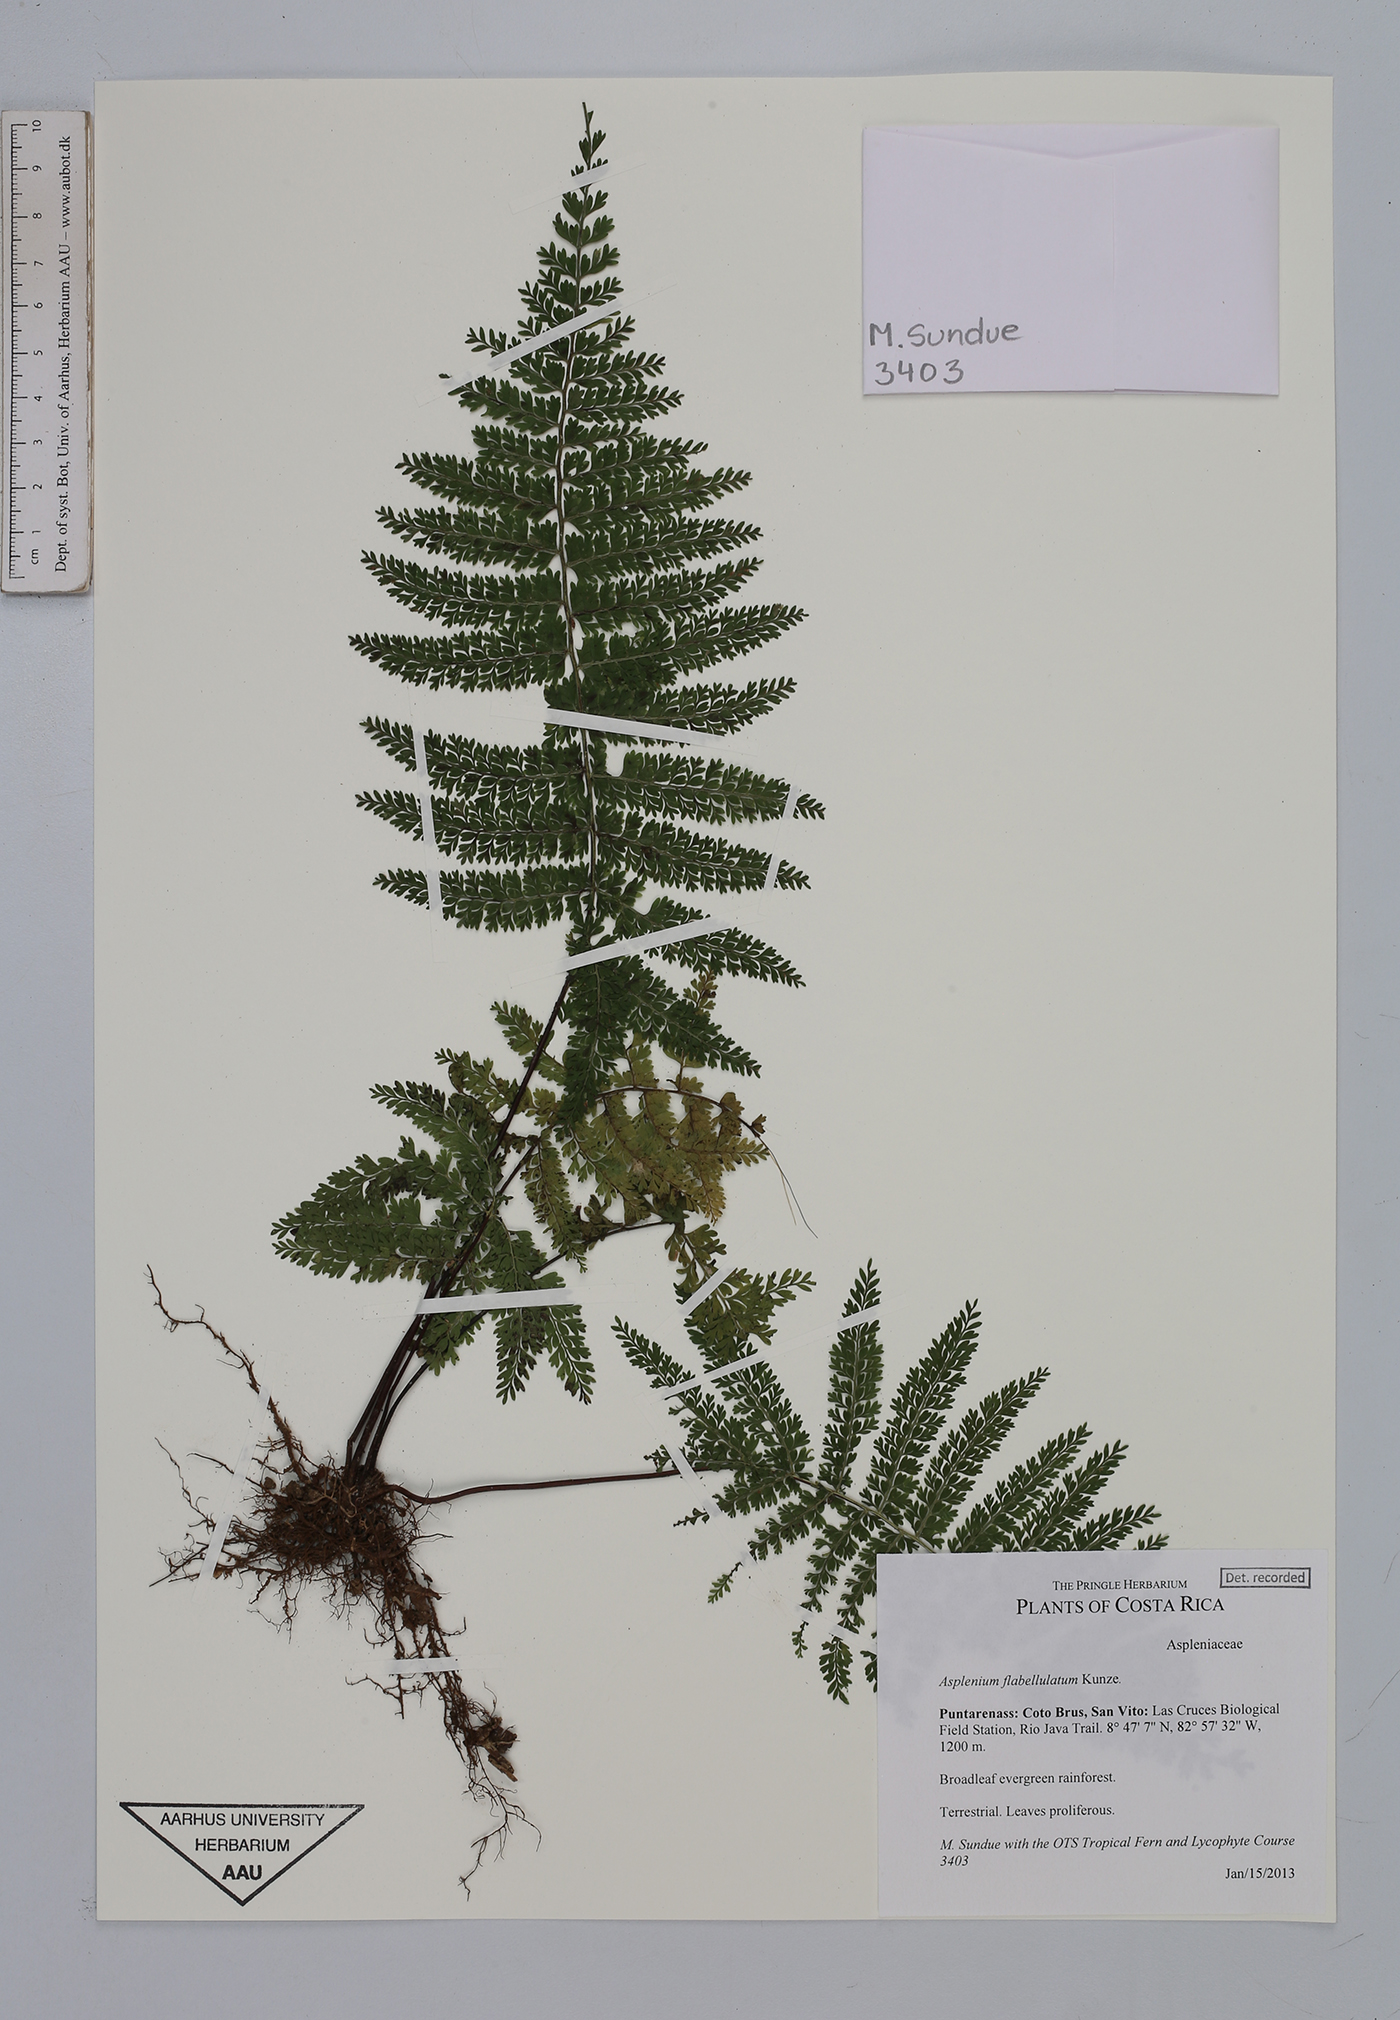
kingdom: Plantae
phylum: Tracheophyta
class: Polypodiopsida
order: Polypodiales
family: Aspleniaceae
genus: Asplenium
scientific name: Asplenium flabellulatum
